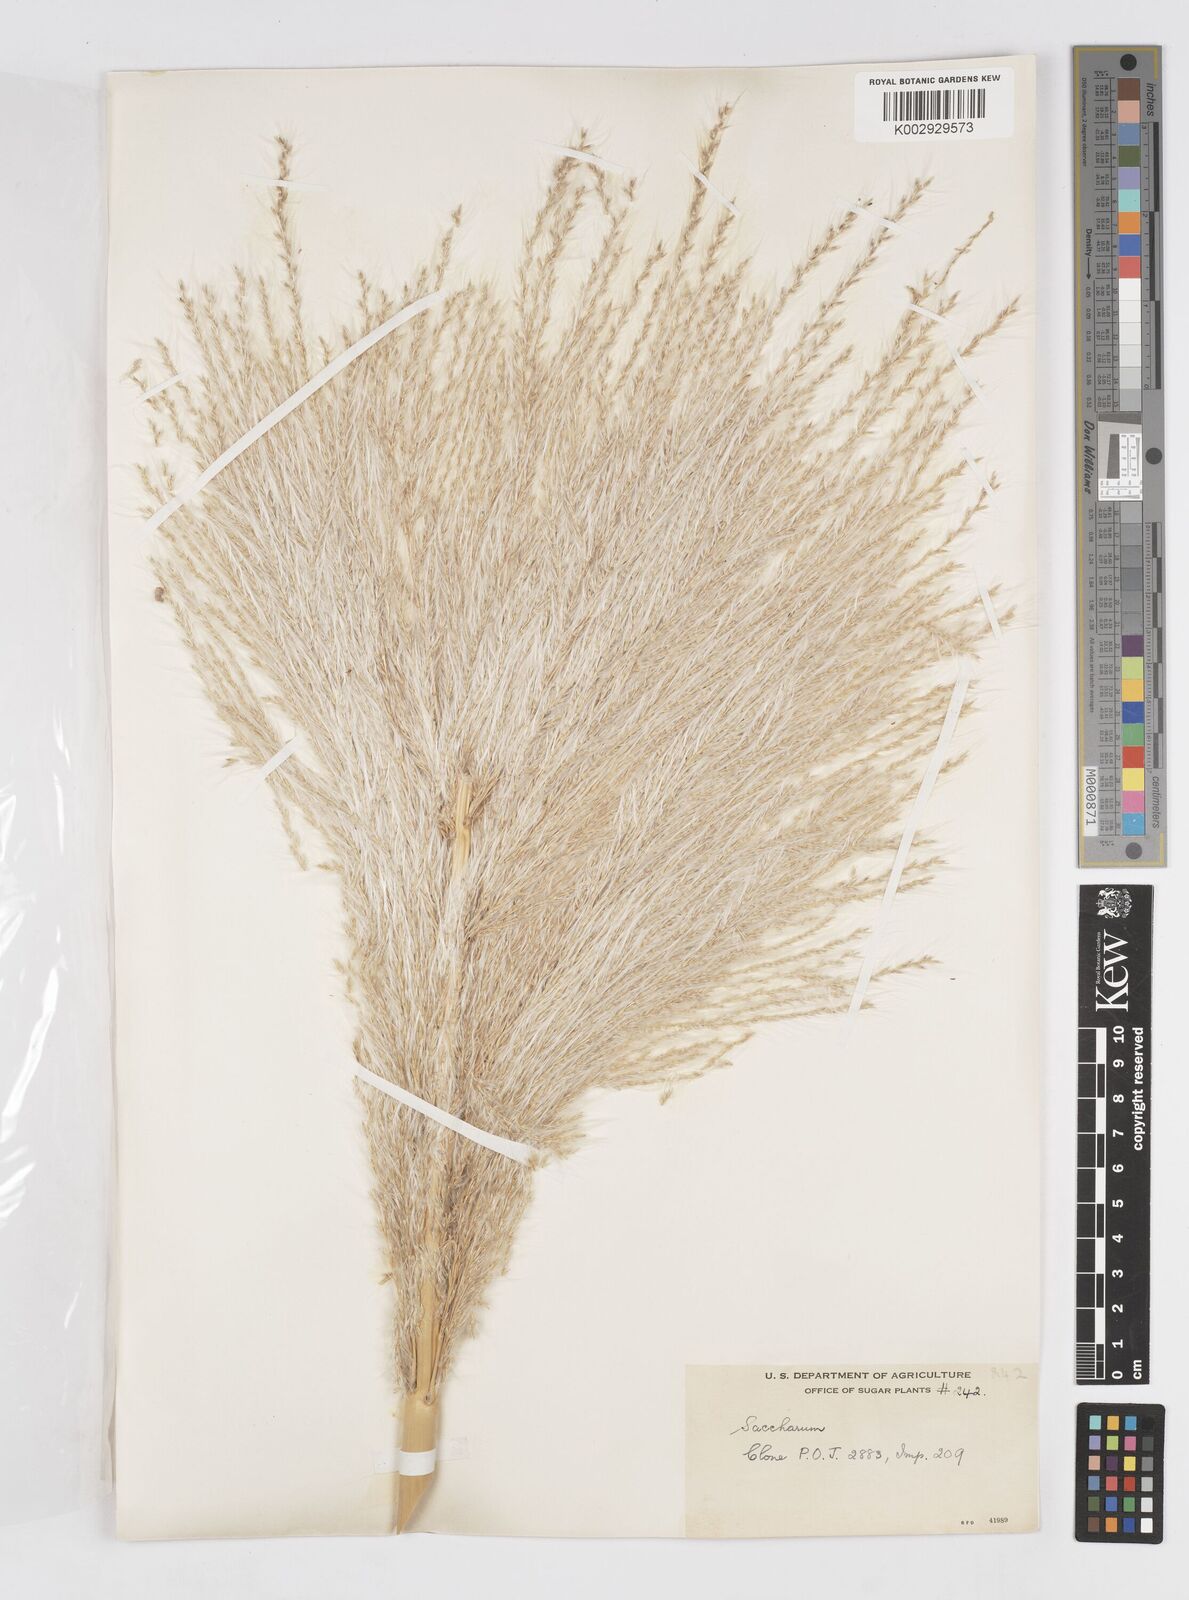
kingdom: Plantae
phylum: Tracheophyta
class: Liliopsida
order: Poales
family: Poaceae
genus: Saccharum
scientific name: Saccharum officinarum
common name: Sugarcane
